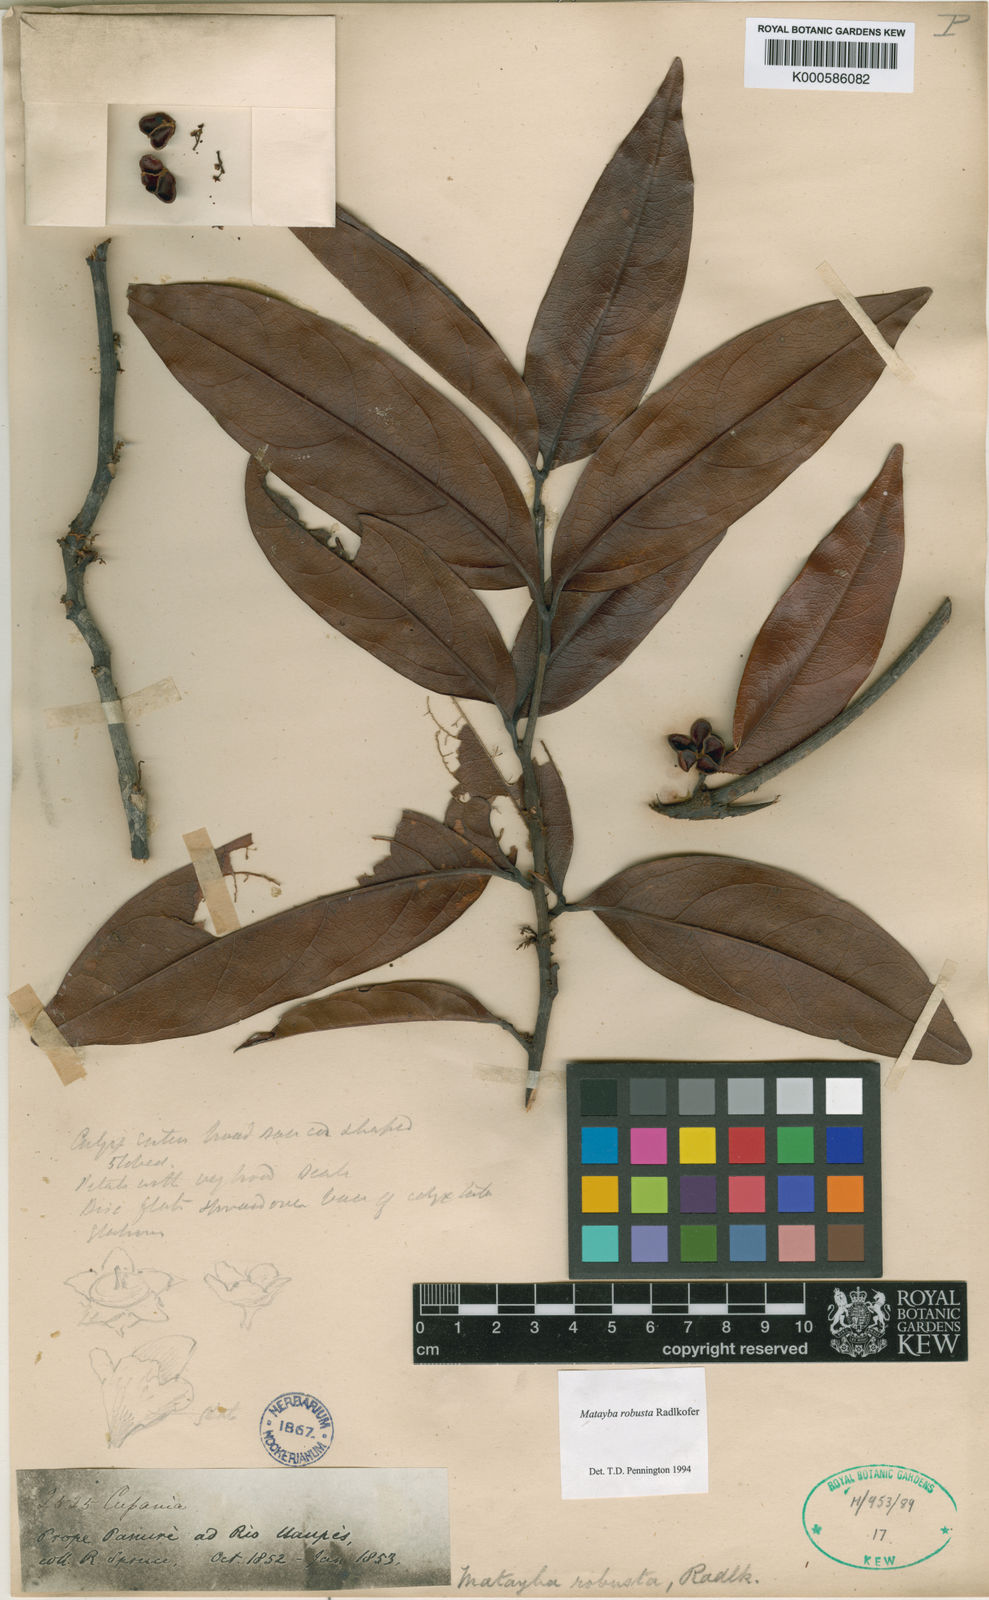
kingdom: Plantae
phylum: Tracheophyta
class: Magnoliopsida
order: Sapindales
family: Sapindaceae
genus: Matayba
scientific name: Matayba robusta
